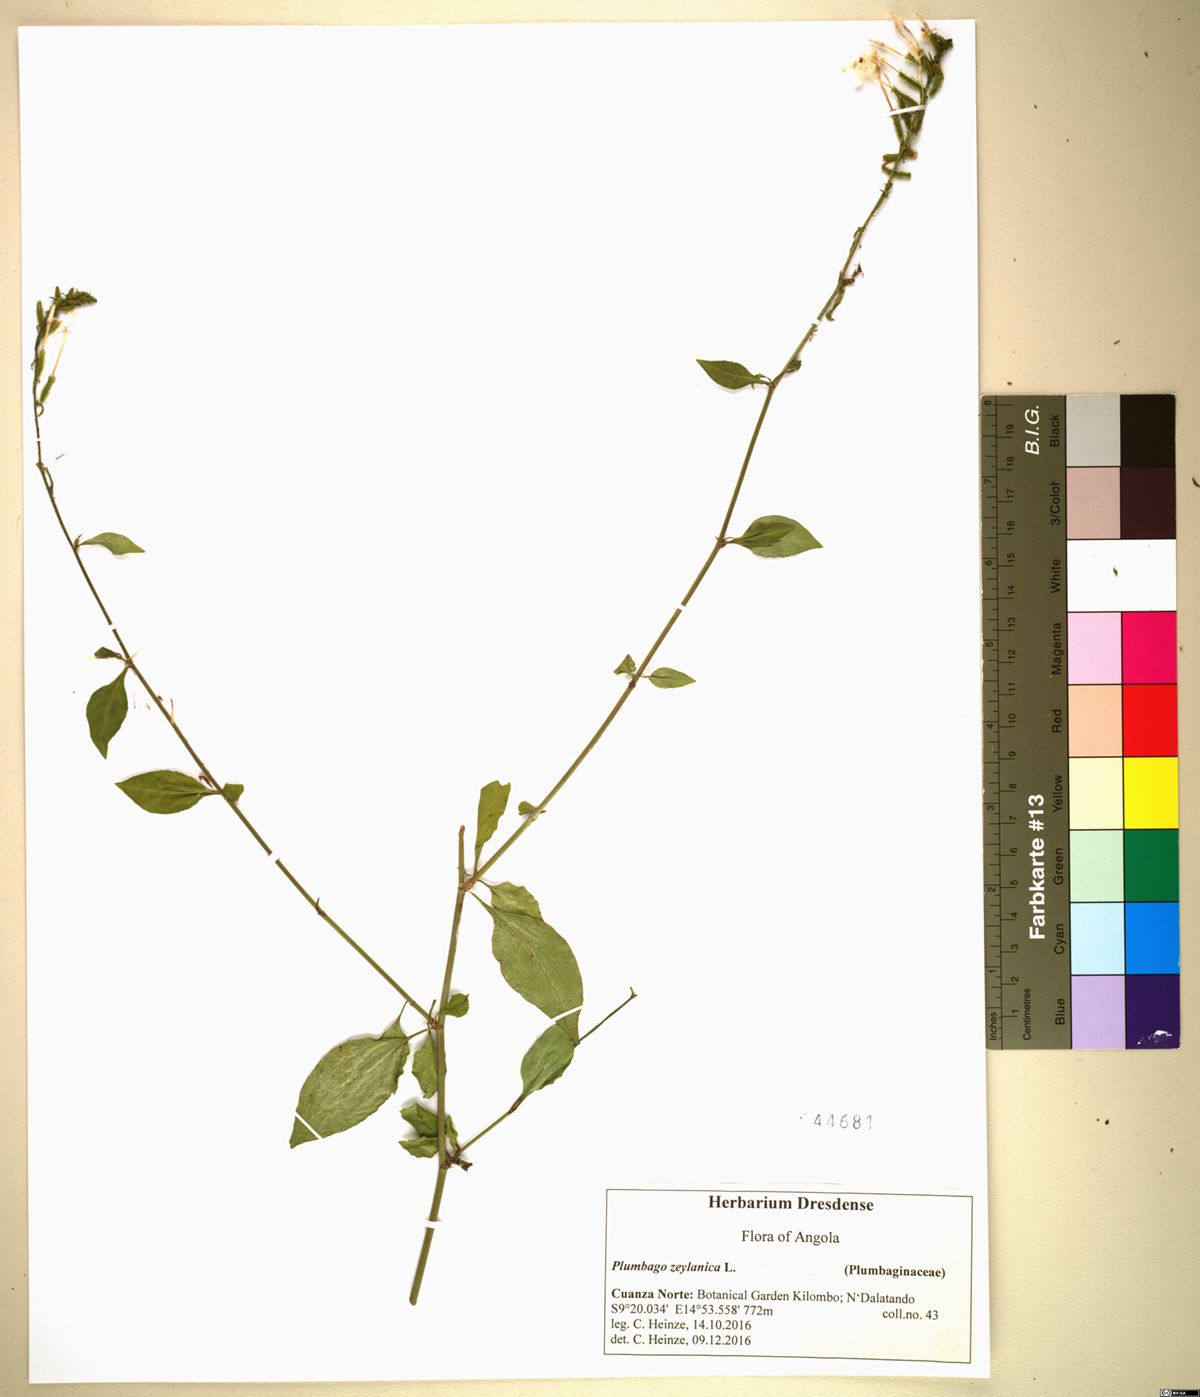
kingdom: Plantae
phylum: Tracheophyta
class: Magnoliopsida
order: Caryophyllales
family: Plumbaginaceae
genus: Plumbago
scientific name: Plumbago zeylanica
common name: Doctorbush
